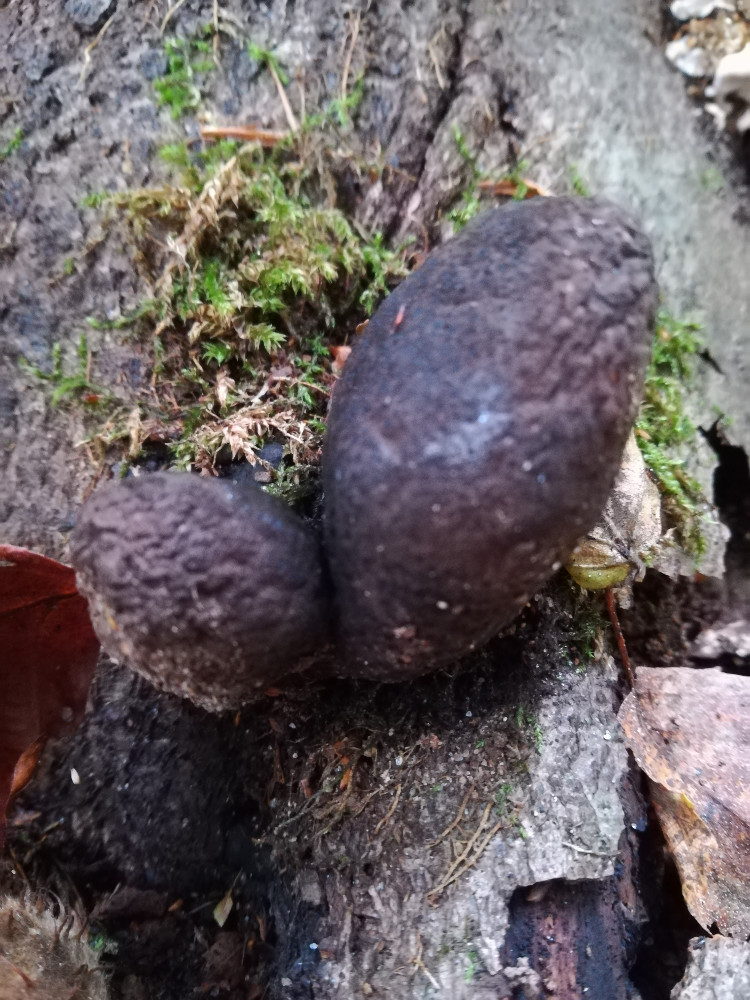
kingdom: Fungi
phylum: Ascomycota
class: Sordariomycetes
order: Xylariales
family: Xylariaceae
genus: Xylaria
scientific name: Xylaria polymorpha
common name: kølle-stødsvamp
